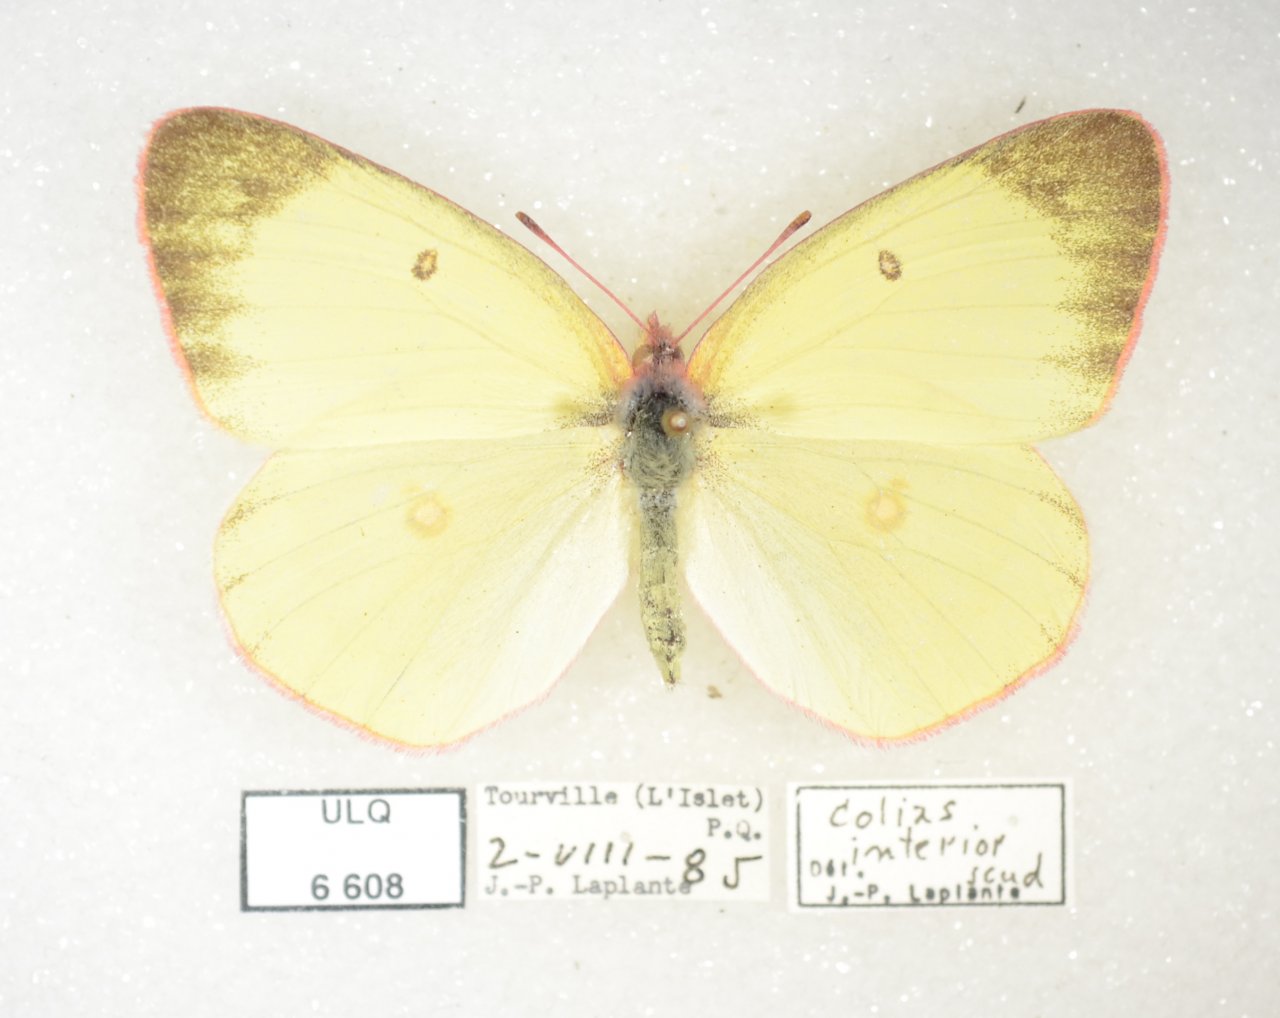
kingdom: Animalia
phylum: Arthropoda
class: Insecta
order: Lepidoptera
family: Pieridae
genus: Colias
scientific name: Colias interior
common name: Pink-edged Sulphur
